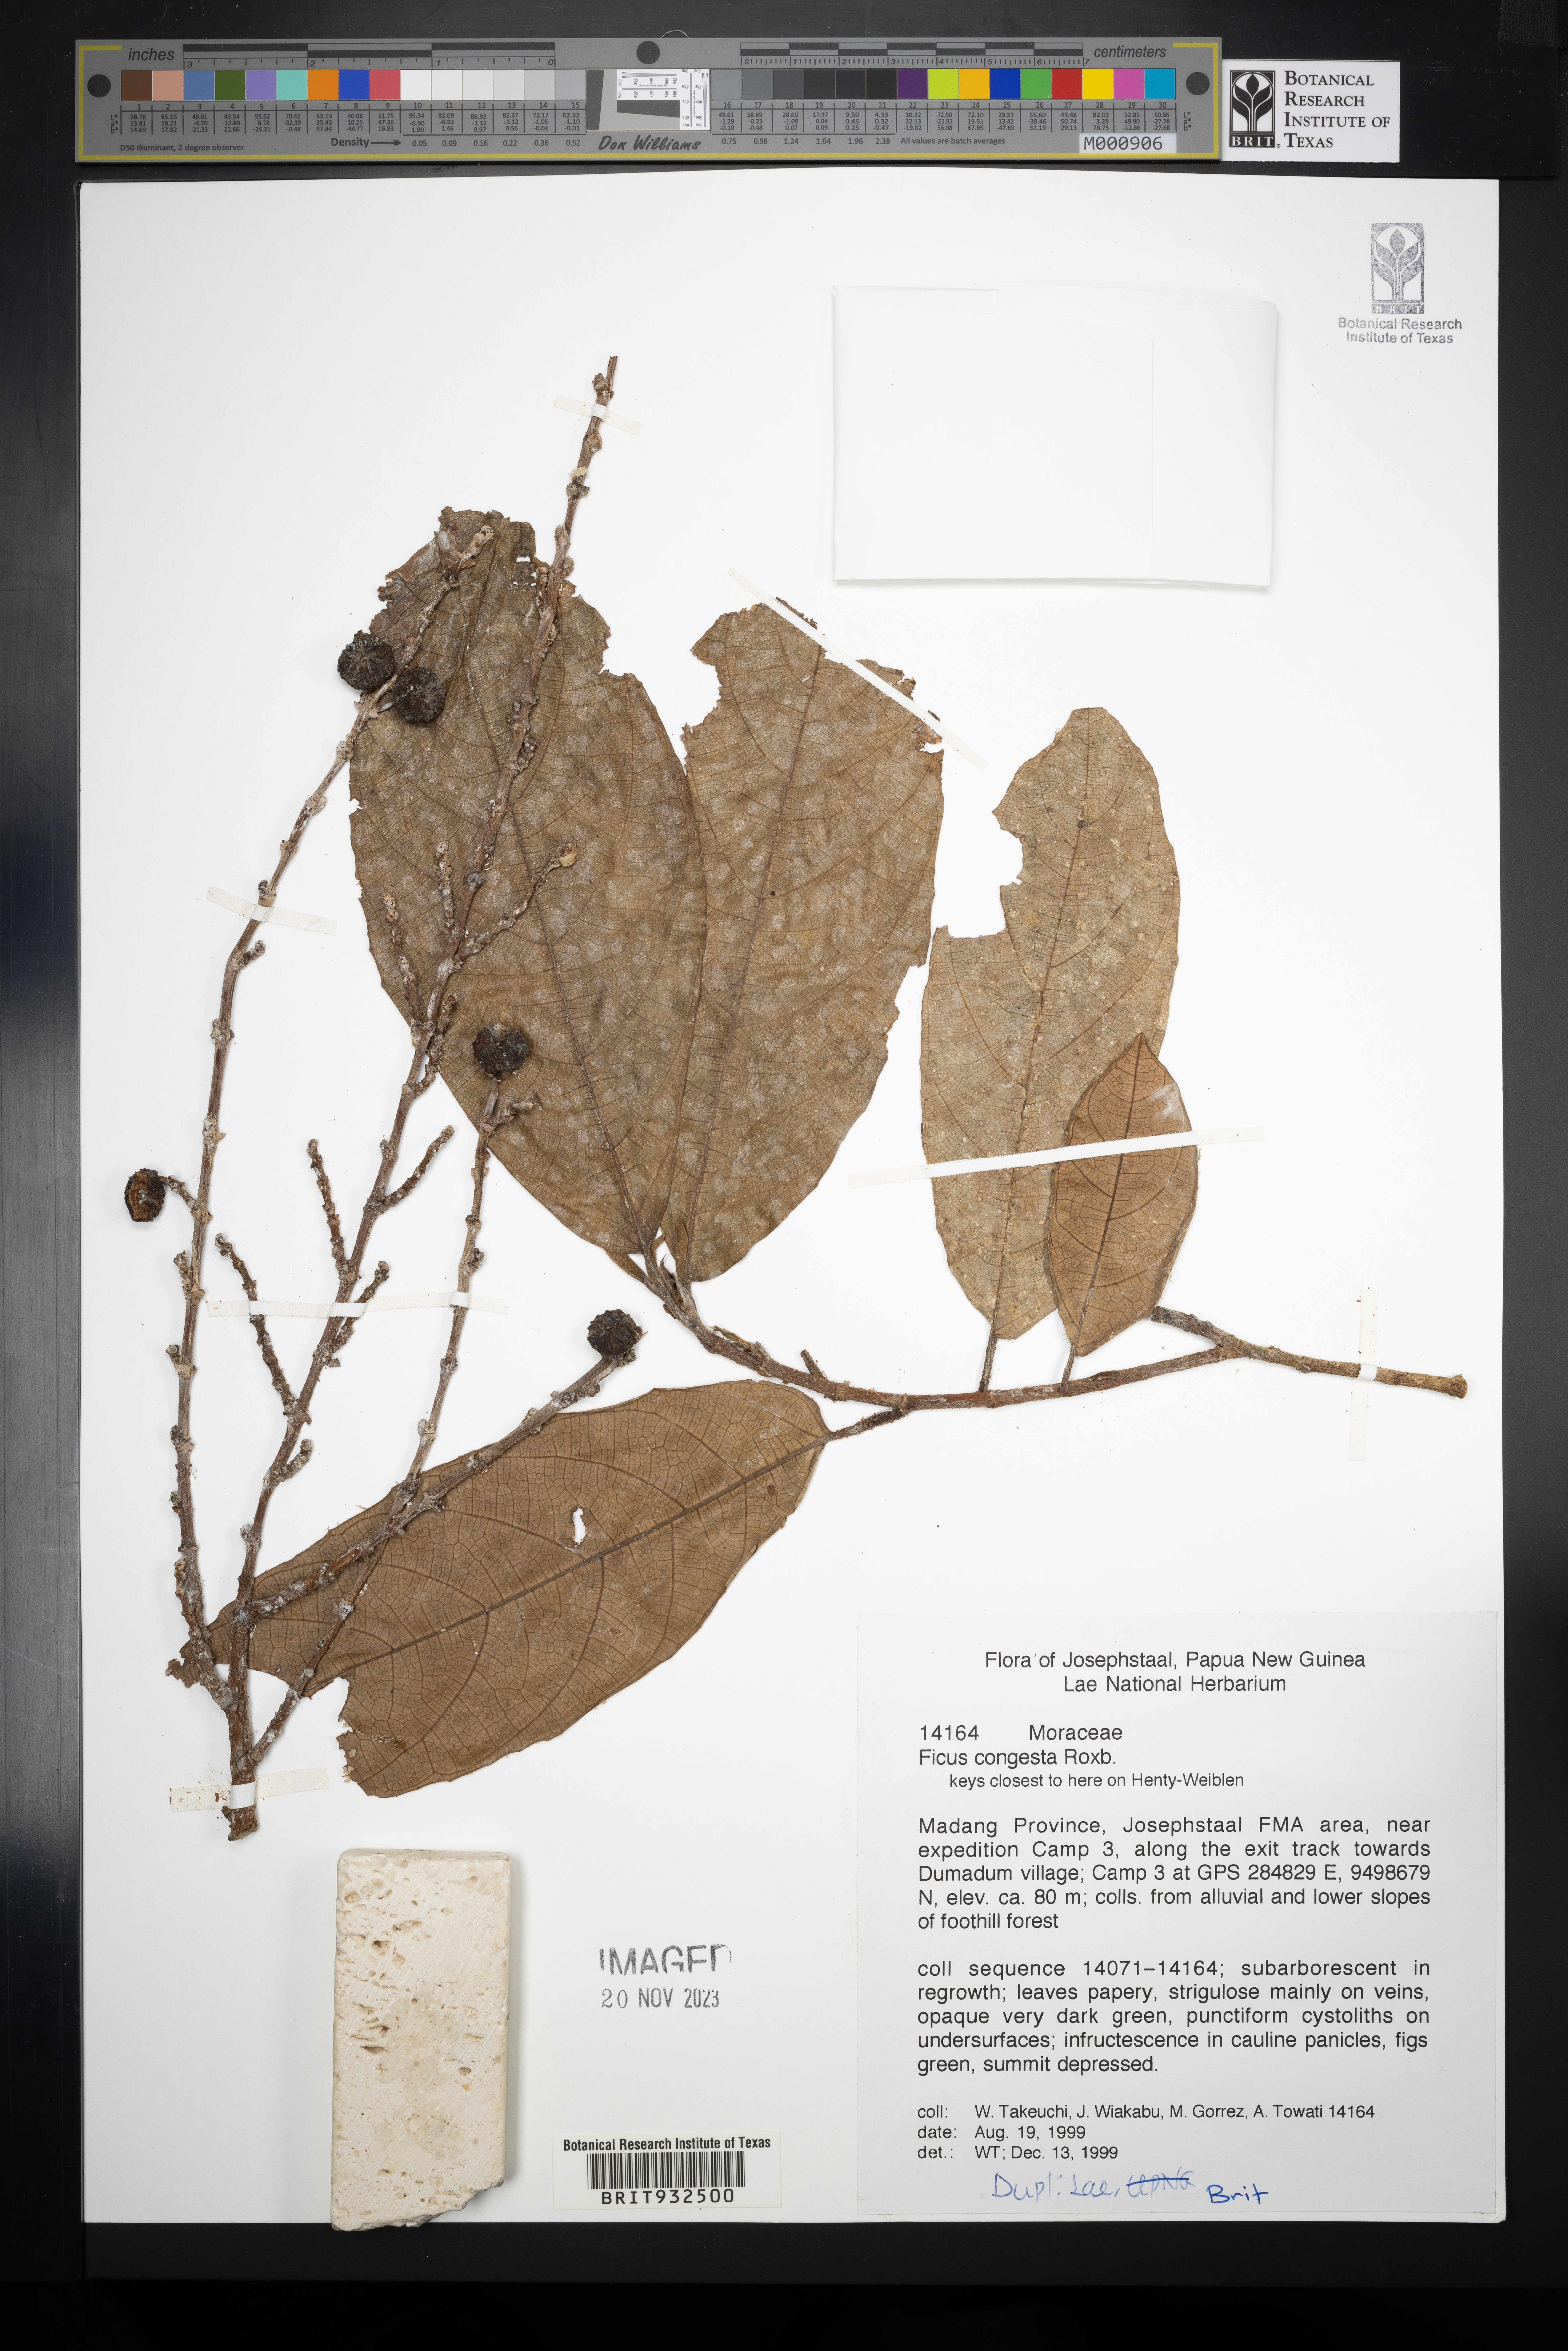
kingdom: Plantae
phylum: Tracheophyta
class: Magnoliopsida
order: Rosales
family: Moraceae
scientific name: Moraceae
